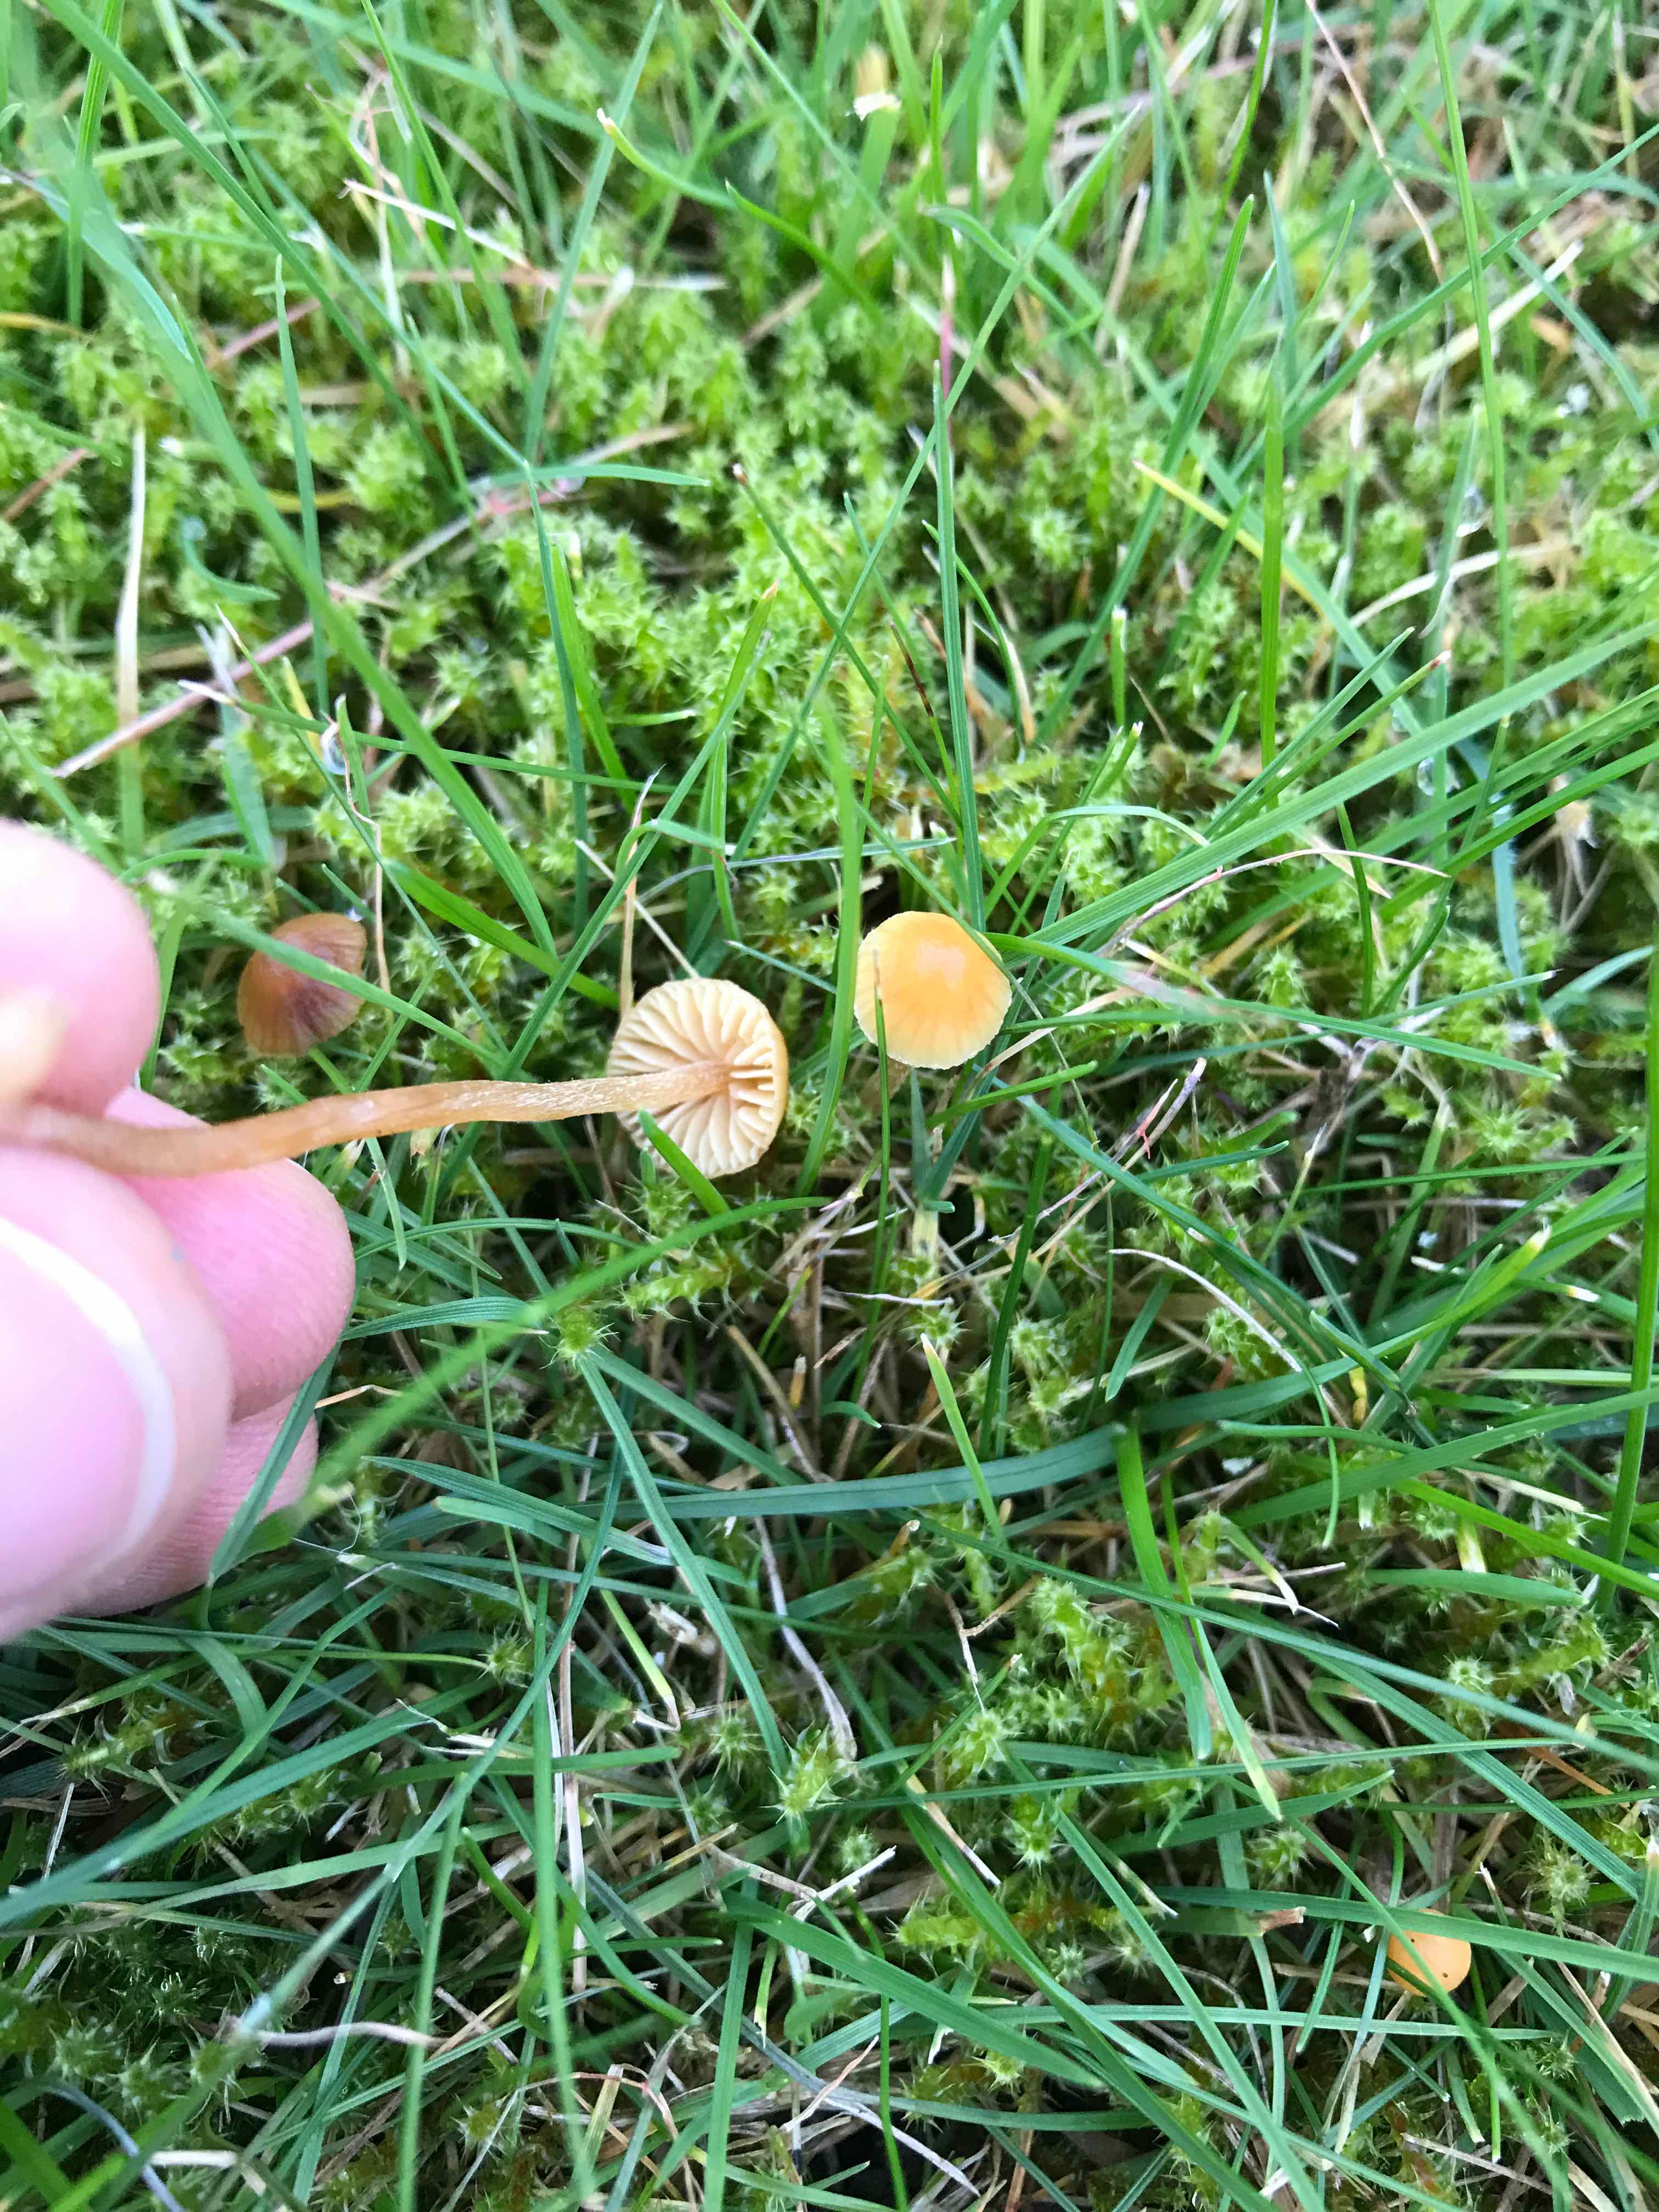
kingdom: Fungi
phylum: Basidiomycota
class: Agaricomycetes
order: Agaricales
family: Hymenogastraceae
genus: Galerina
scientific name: Galerina
